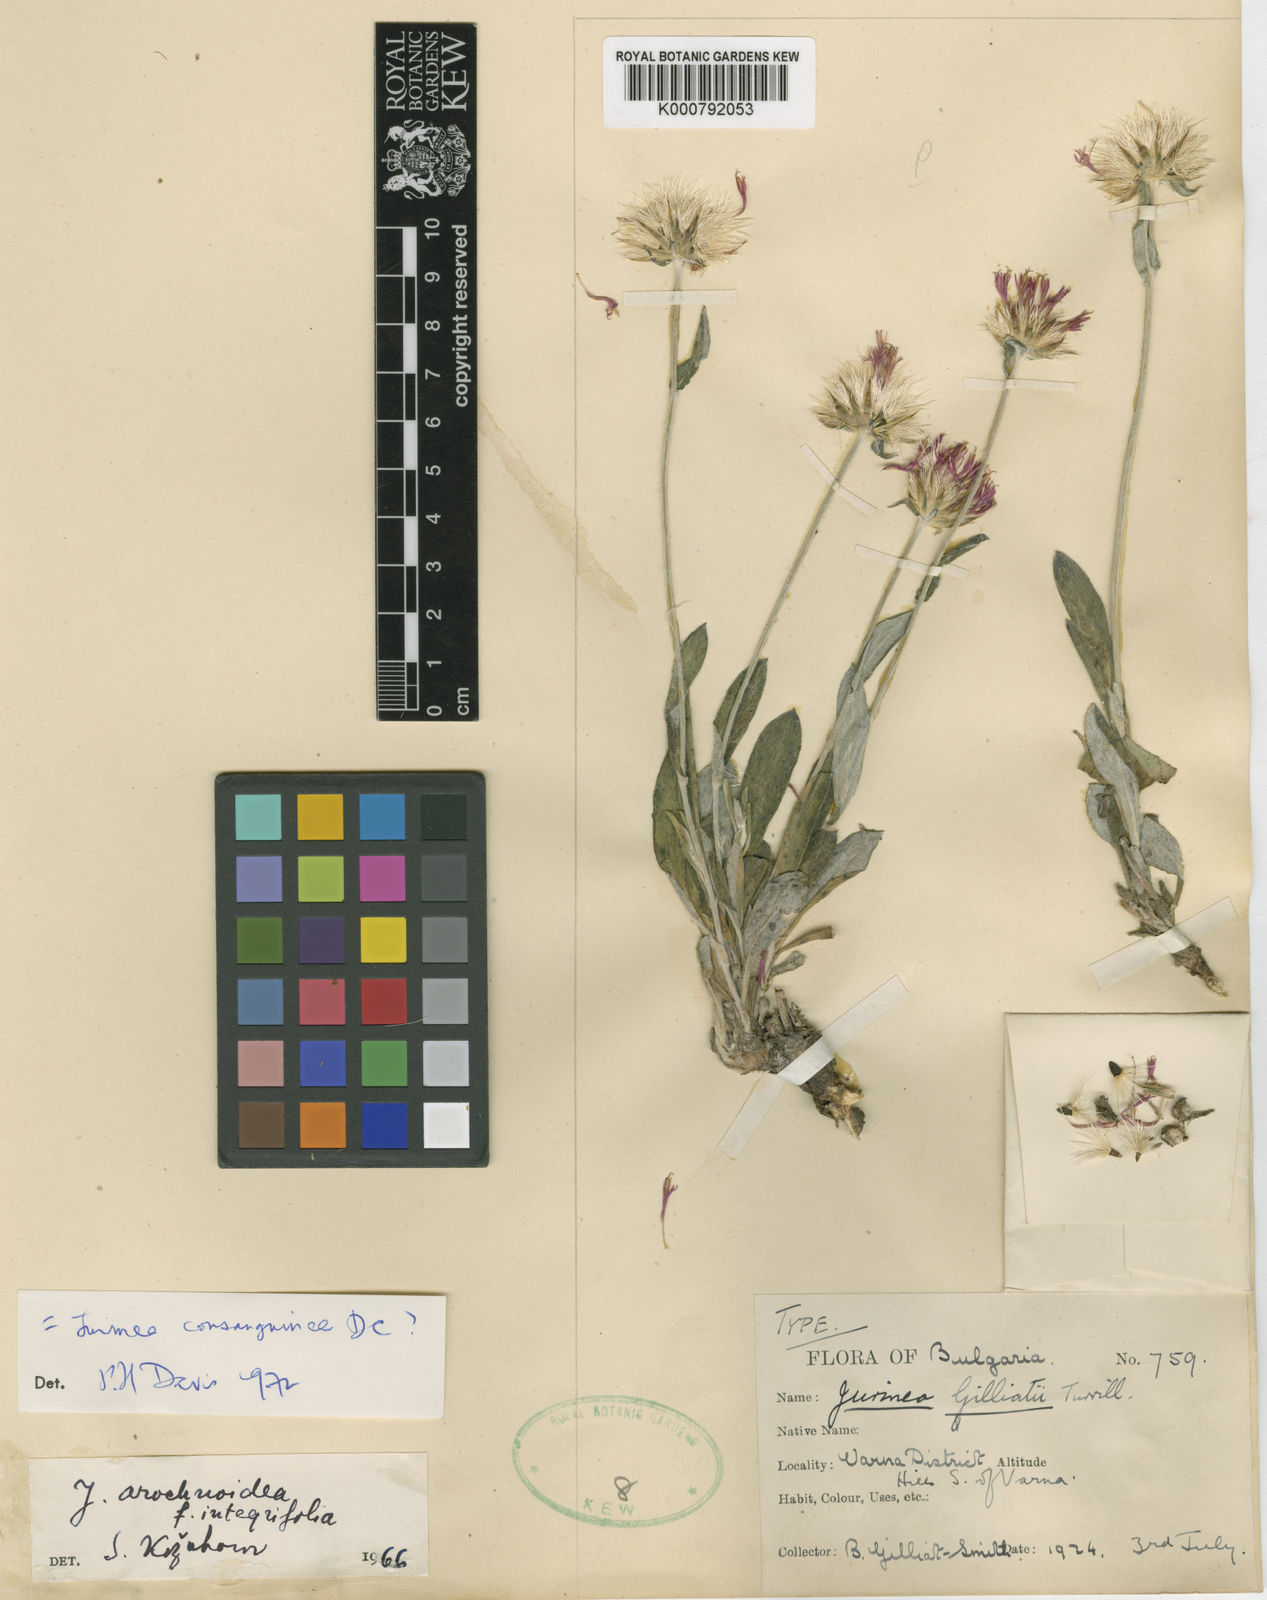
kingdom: Plantae
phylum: Tracheophyta
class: Magnoliopsida
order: Asterales
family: Asteraceae
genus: Jurinea
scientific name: Jurinea arachnoidea
